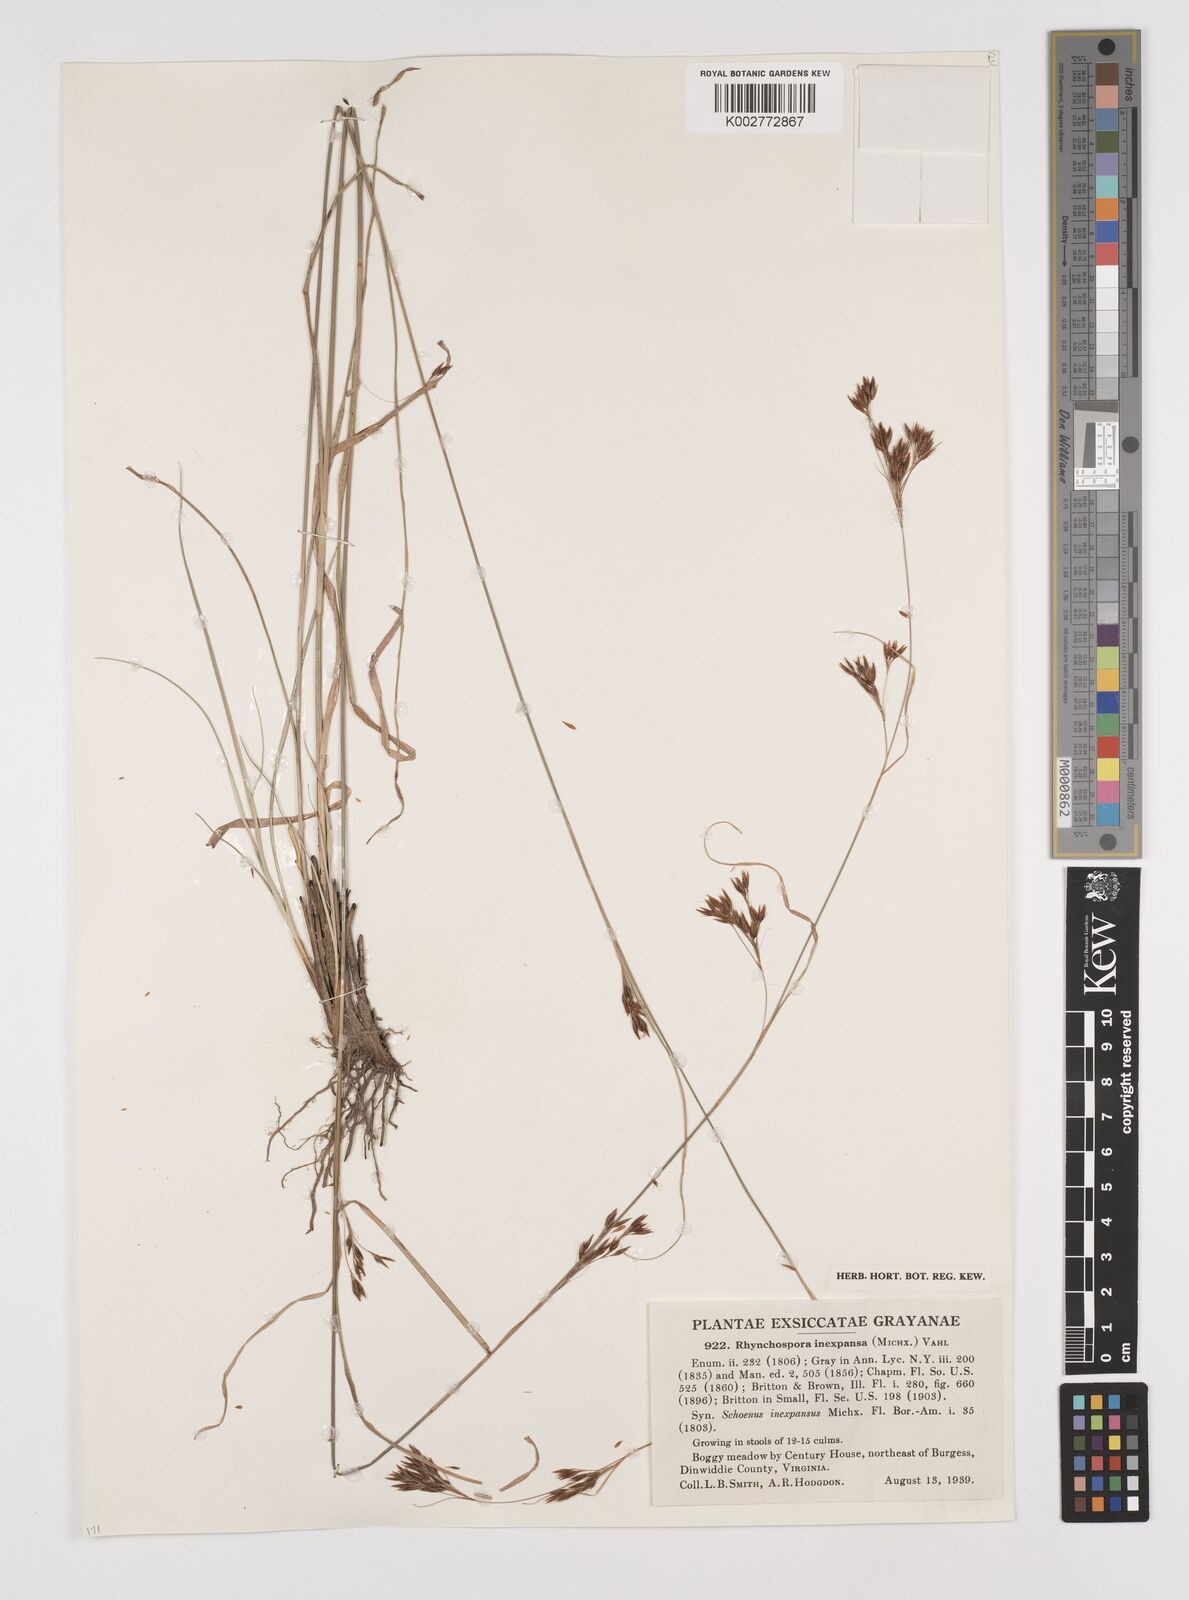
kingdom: Plantae
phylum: Tracheophyta
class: Liliopsida
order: Poales
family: Cyperaceae
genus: Rhynchospora
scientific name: Rhynchospora inexpansa
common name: Nodding beaksedge
